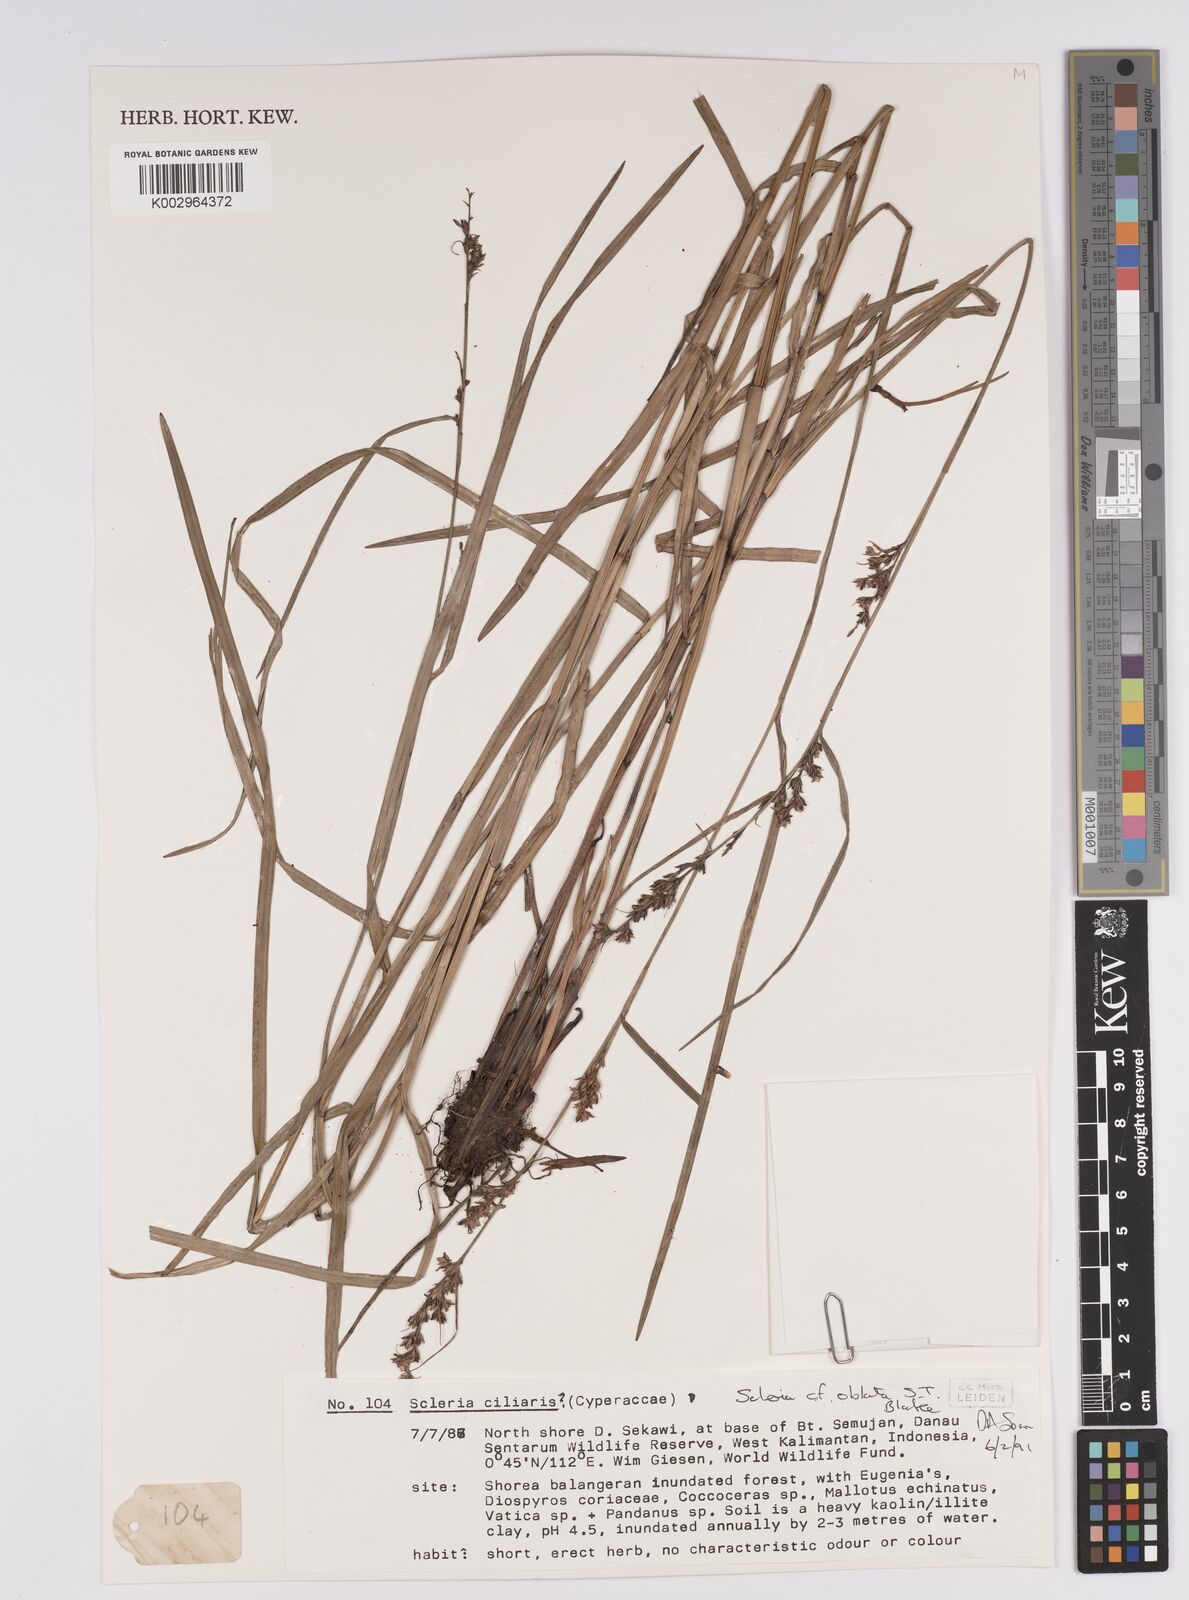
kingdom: Plantae
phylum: Tracheophyta
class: Liliopsida
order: Poales
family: Cyperaceae
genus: Scleria
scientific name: Scleria oblata
